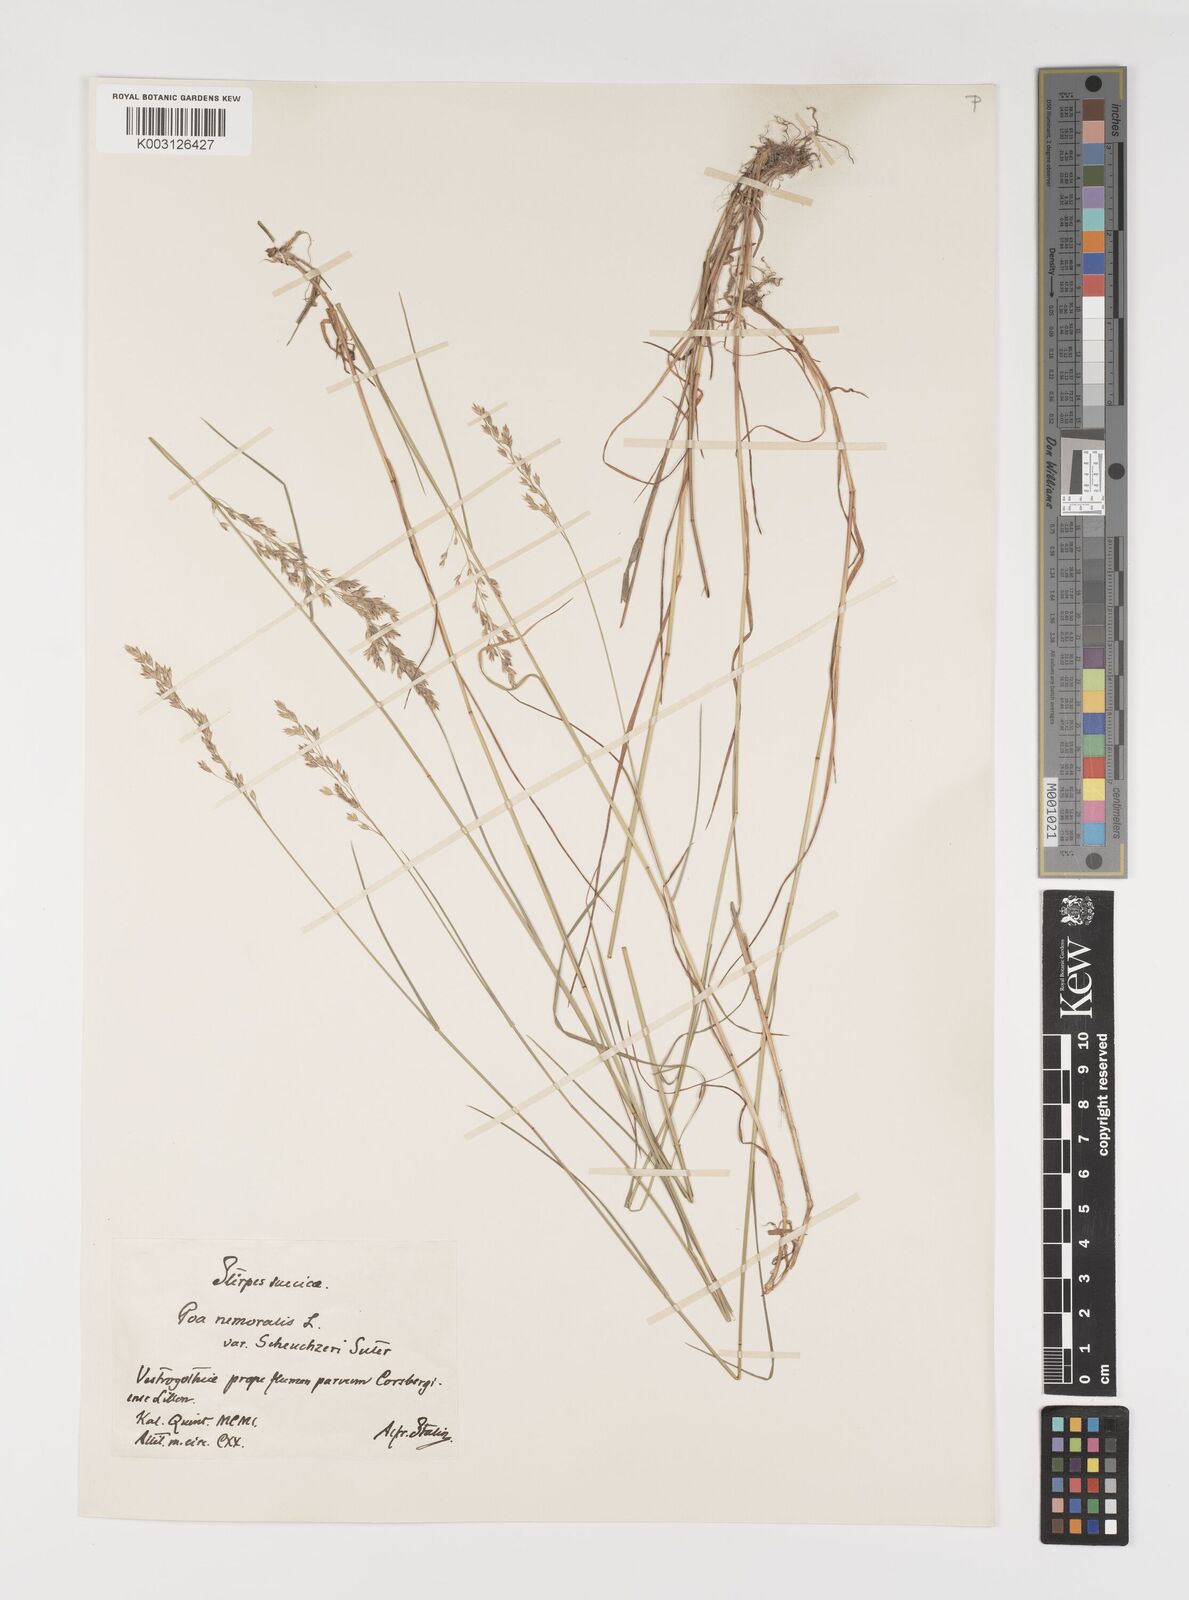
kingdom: Plantae
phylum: Tracheophyta
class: Liliopsida
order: Poales
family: Poaceae
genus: Poa
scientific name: Poa nemoralis
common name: Wood bluegrass
